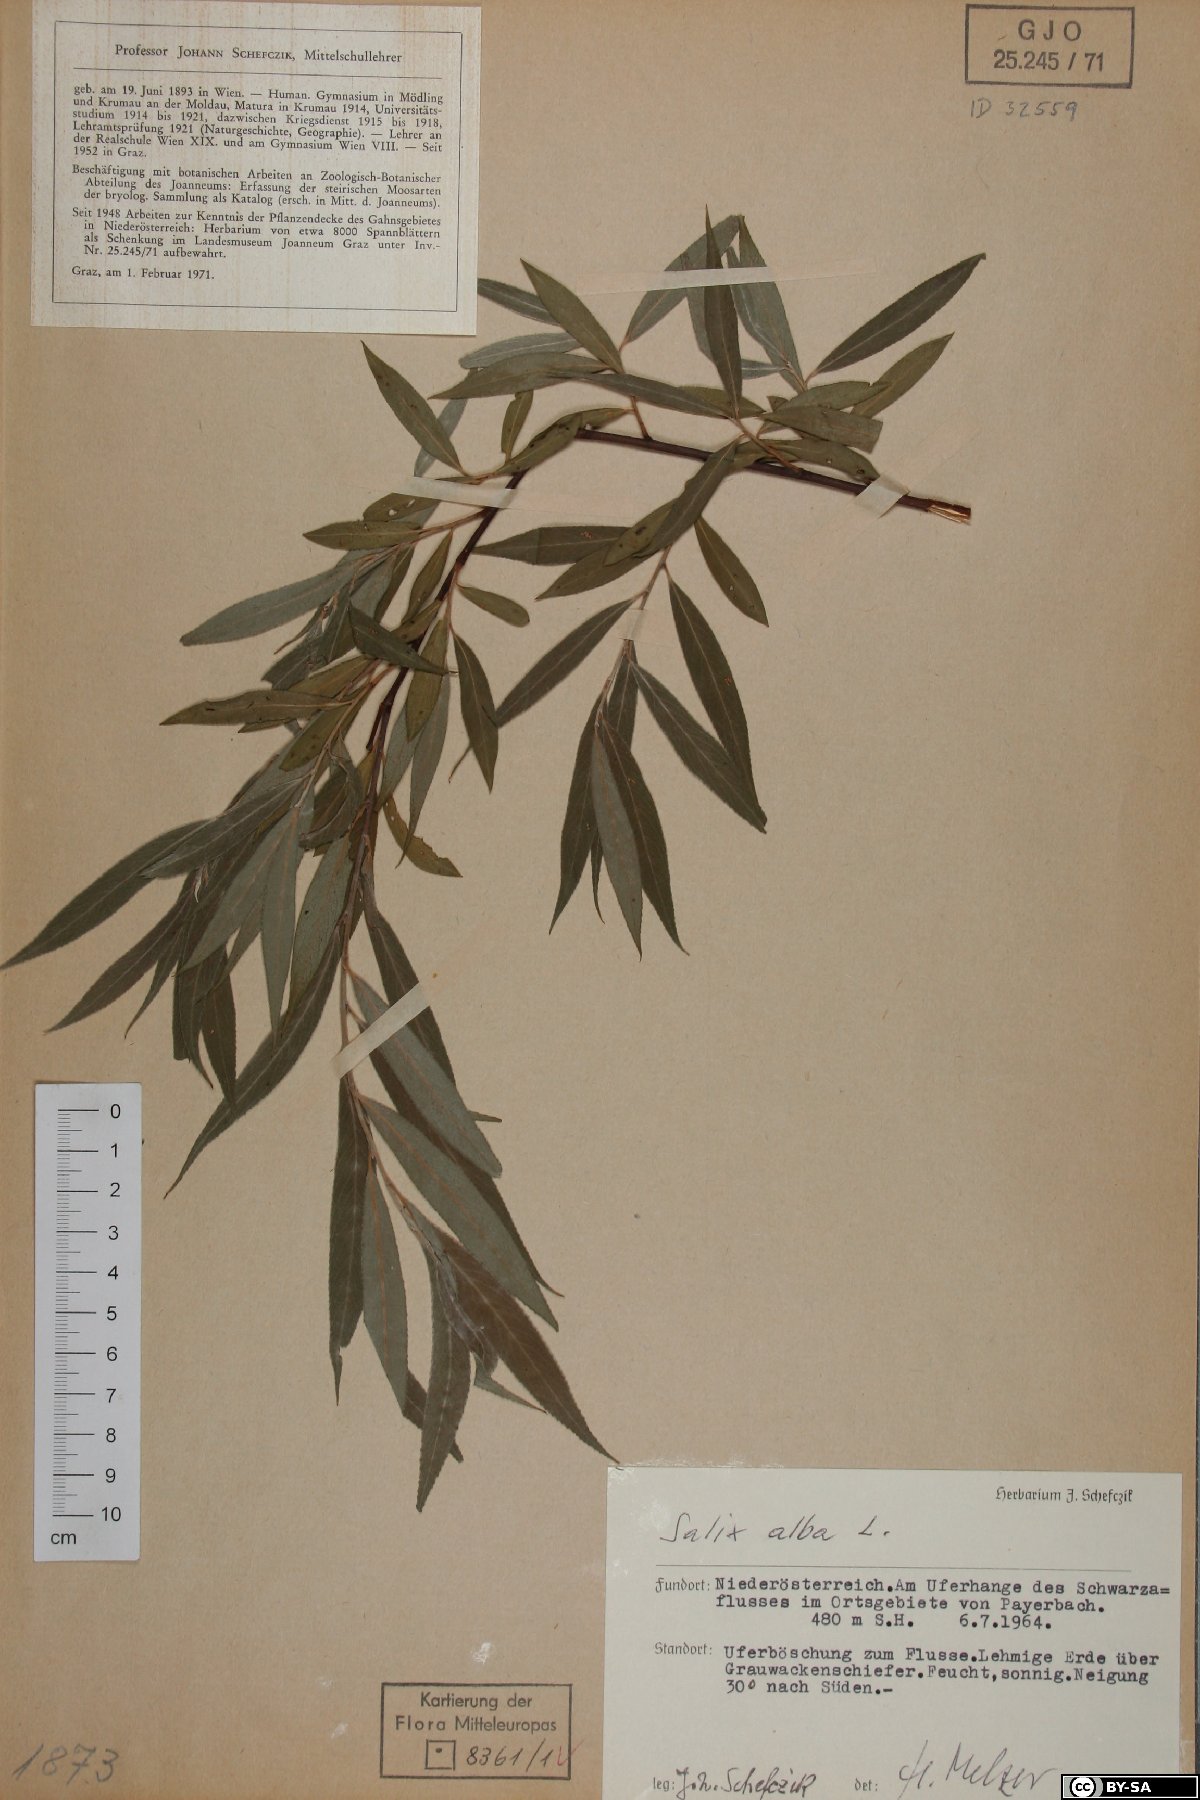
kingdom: Plantae
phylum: Tracheophyta
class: Magnoliopsida
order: Malpighiales
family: Salicaceae
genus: Salix
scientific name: Salix alba
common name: White willow
